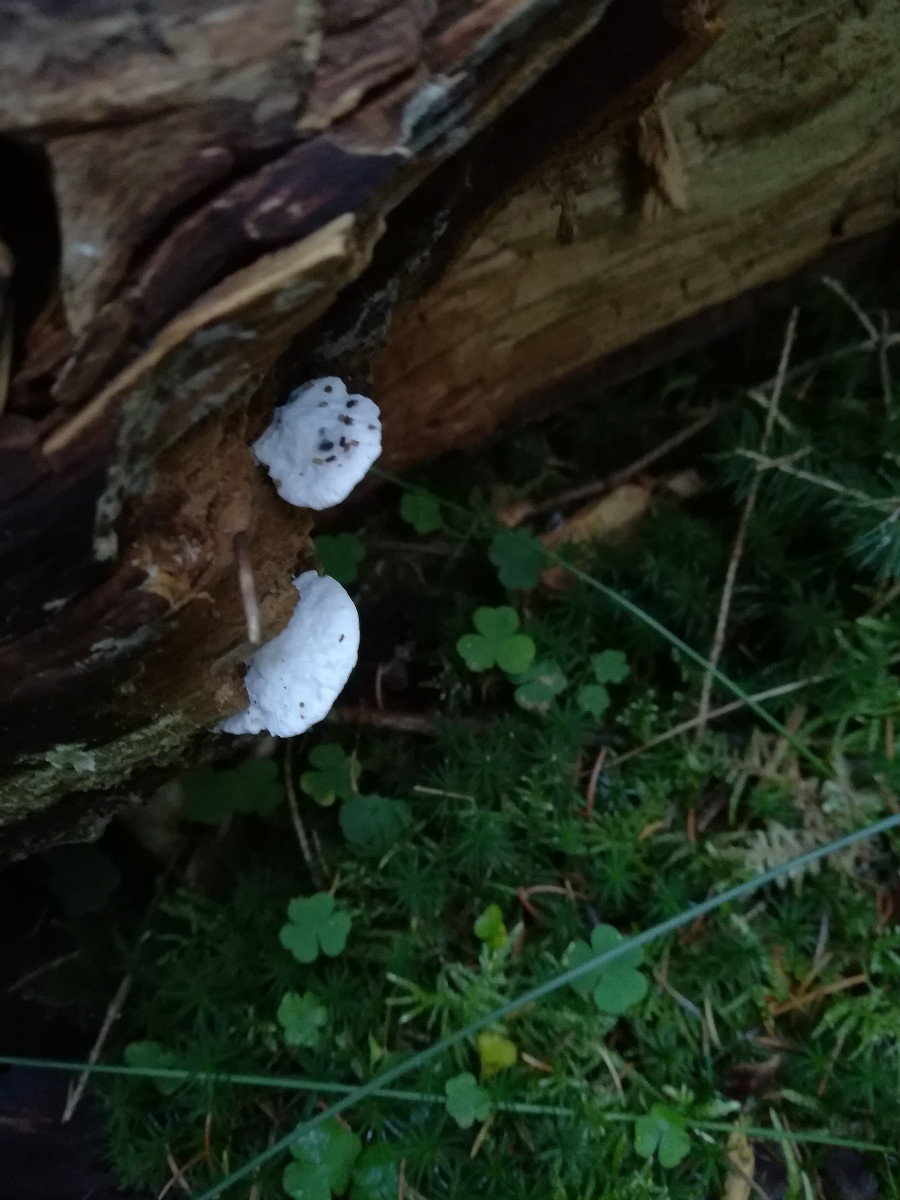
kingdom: Fungi
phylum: Basidiomycota
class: Agaricomycetes
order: Polyporales
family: Incrustoporiaceae
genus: Tyromyces
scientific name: Tyromyces lacteus
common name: mælkehvid kødporesvamp
